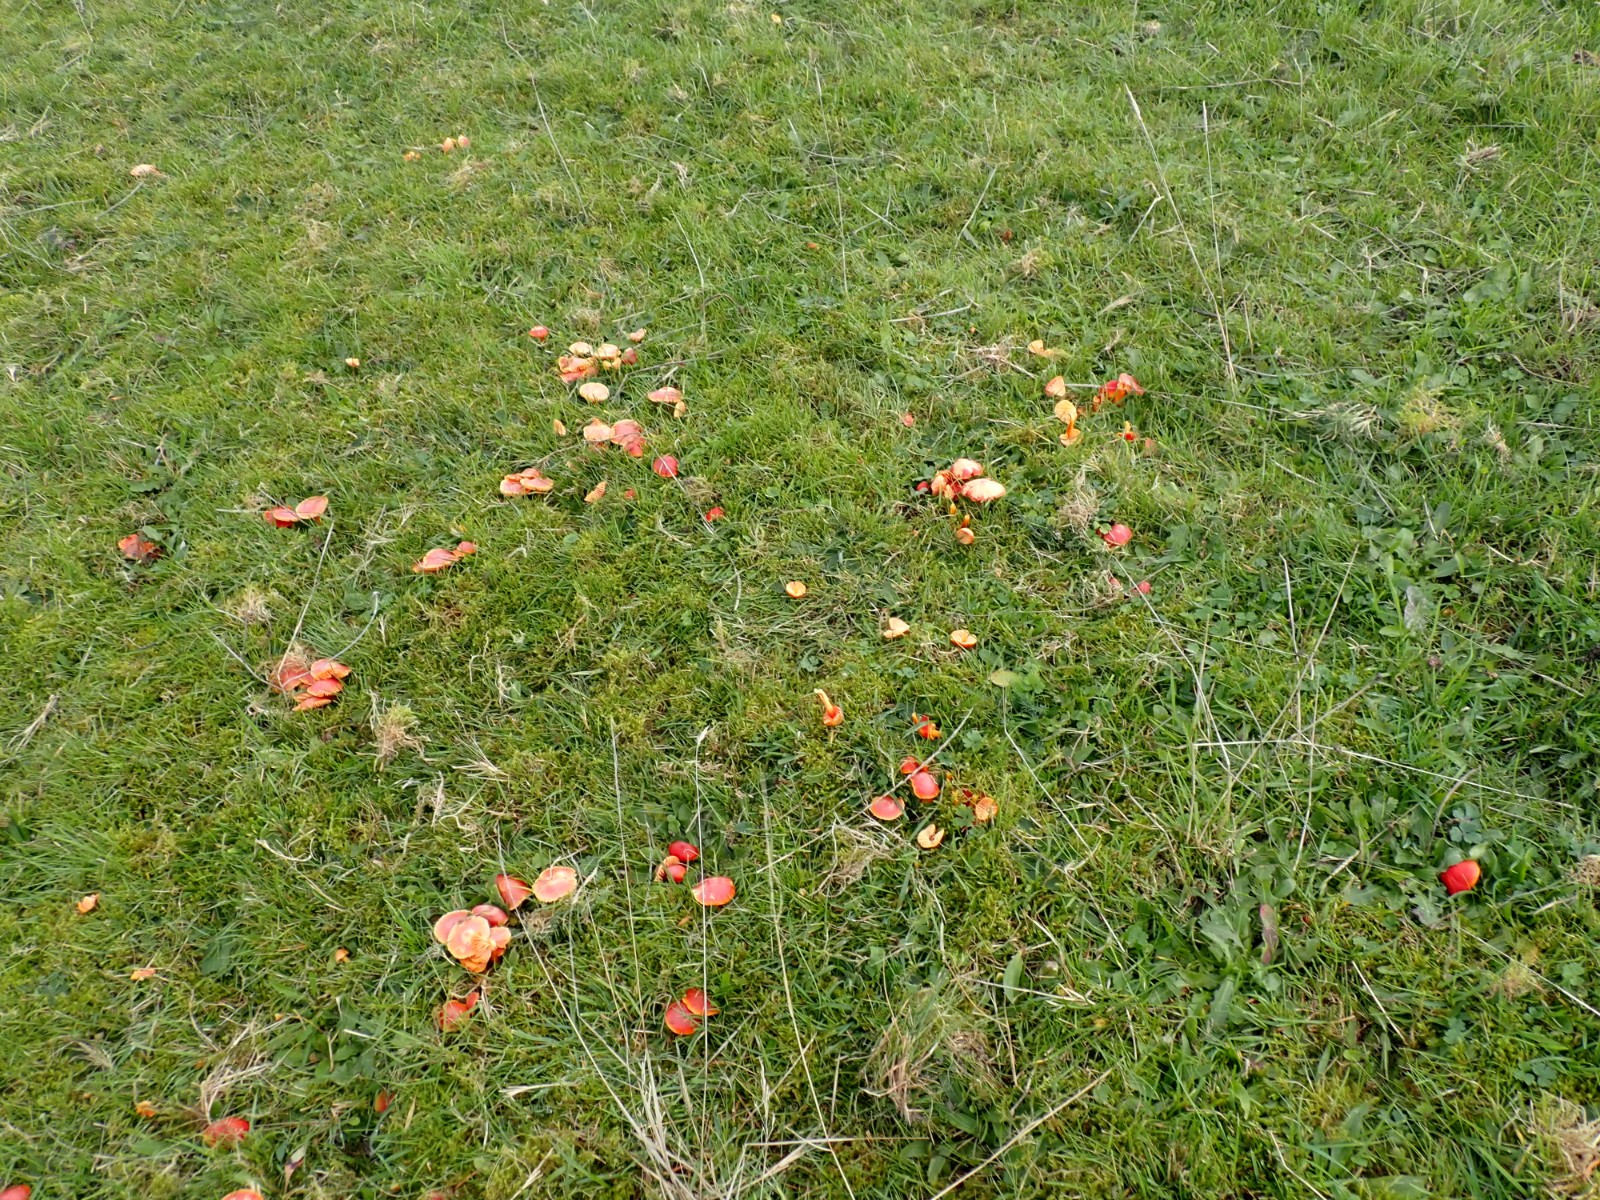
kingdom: Fungi
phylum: Basidiomycota
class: Agaricomycetes
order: Agaricales
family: Hygrophoraceae
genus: Hygrocybe
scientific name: Hygrocybe coccinea
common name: cinnober-vokshat
